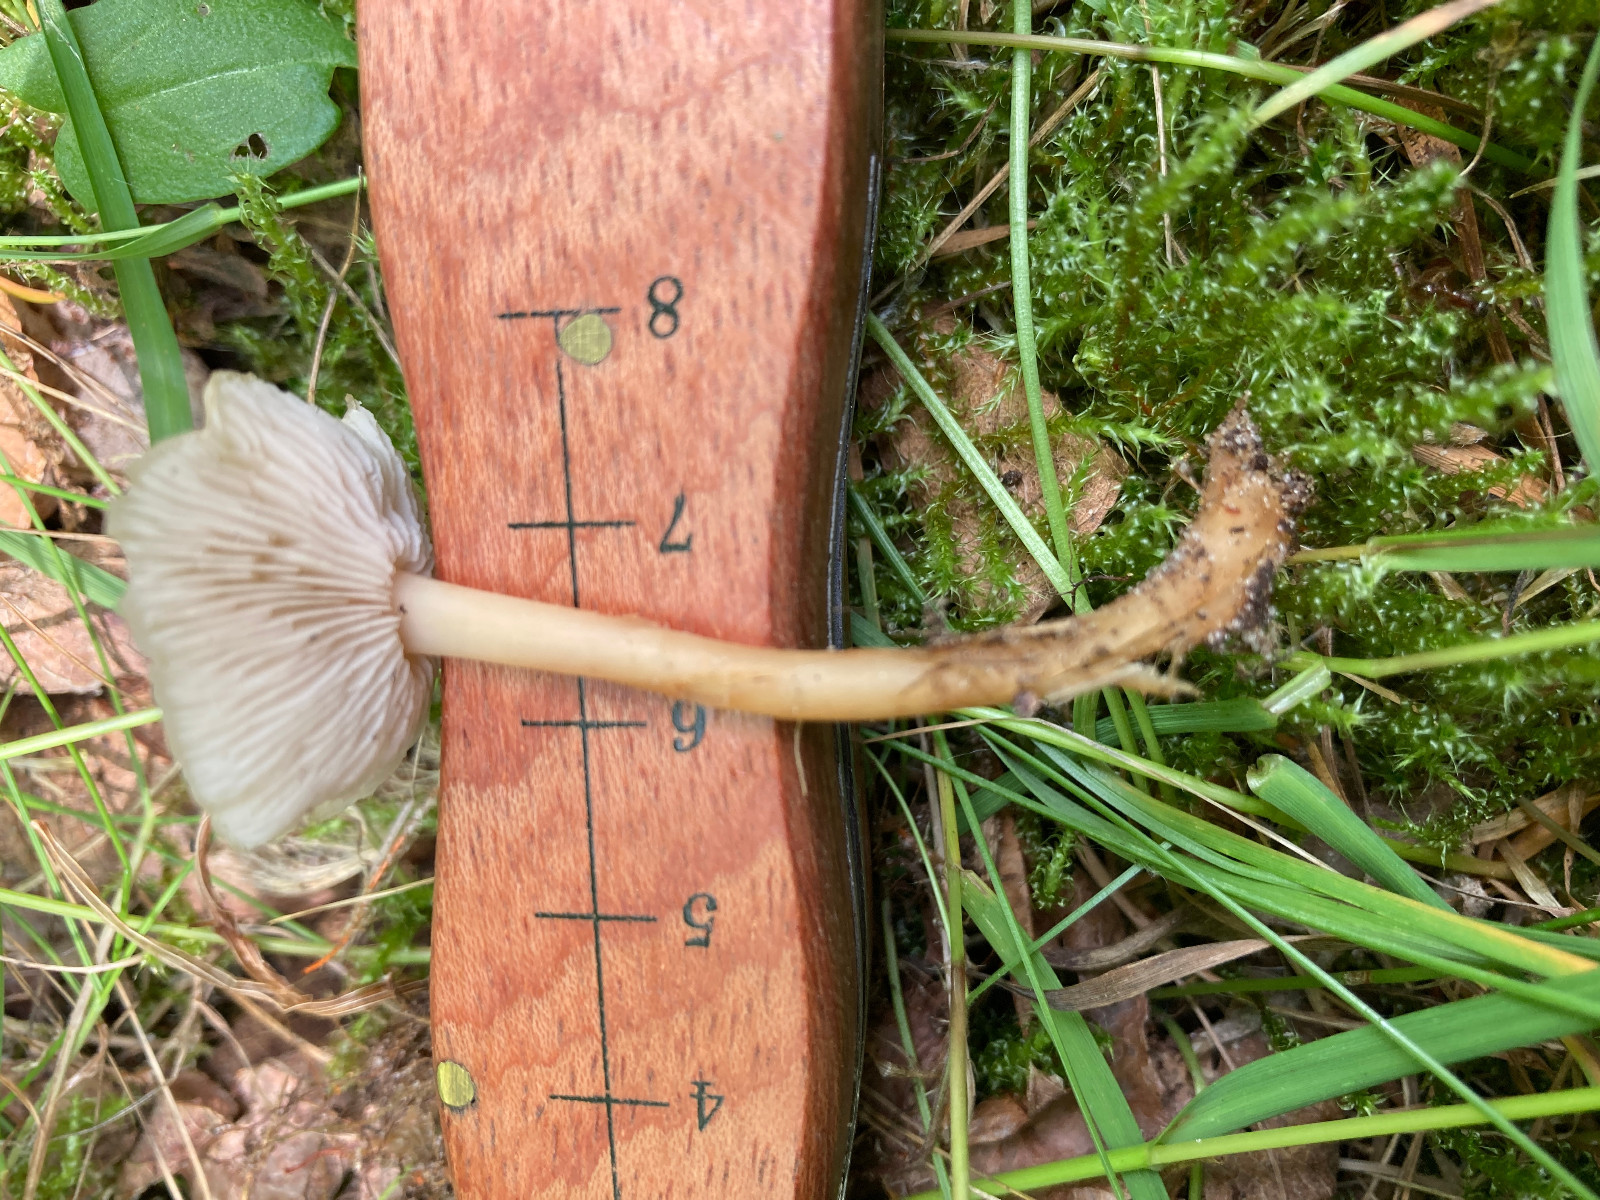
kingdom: Fungi
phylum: Basidiomycota
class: Agaricomycetes
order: Russulales
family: Russulaceae
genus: Lactarius
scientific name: Lactarius tabidus
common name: rynket mælkehat
